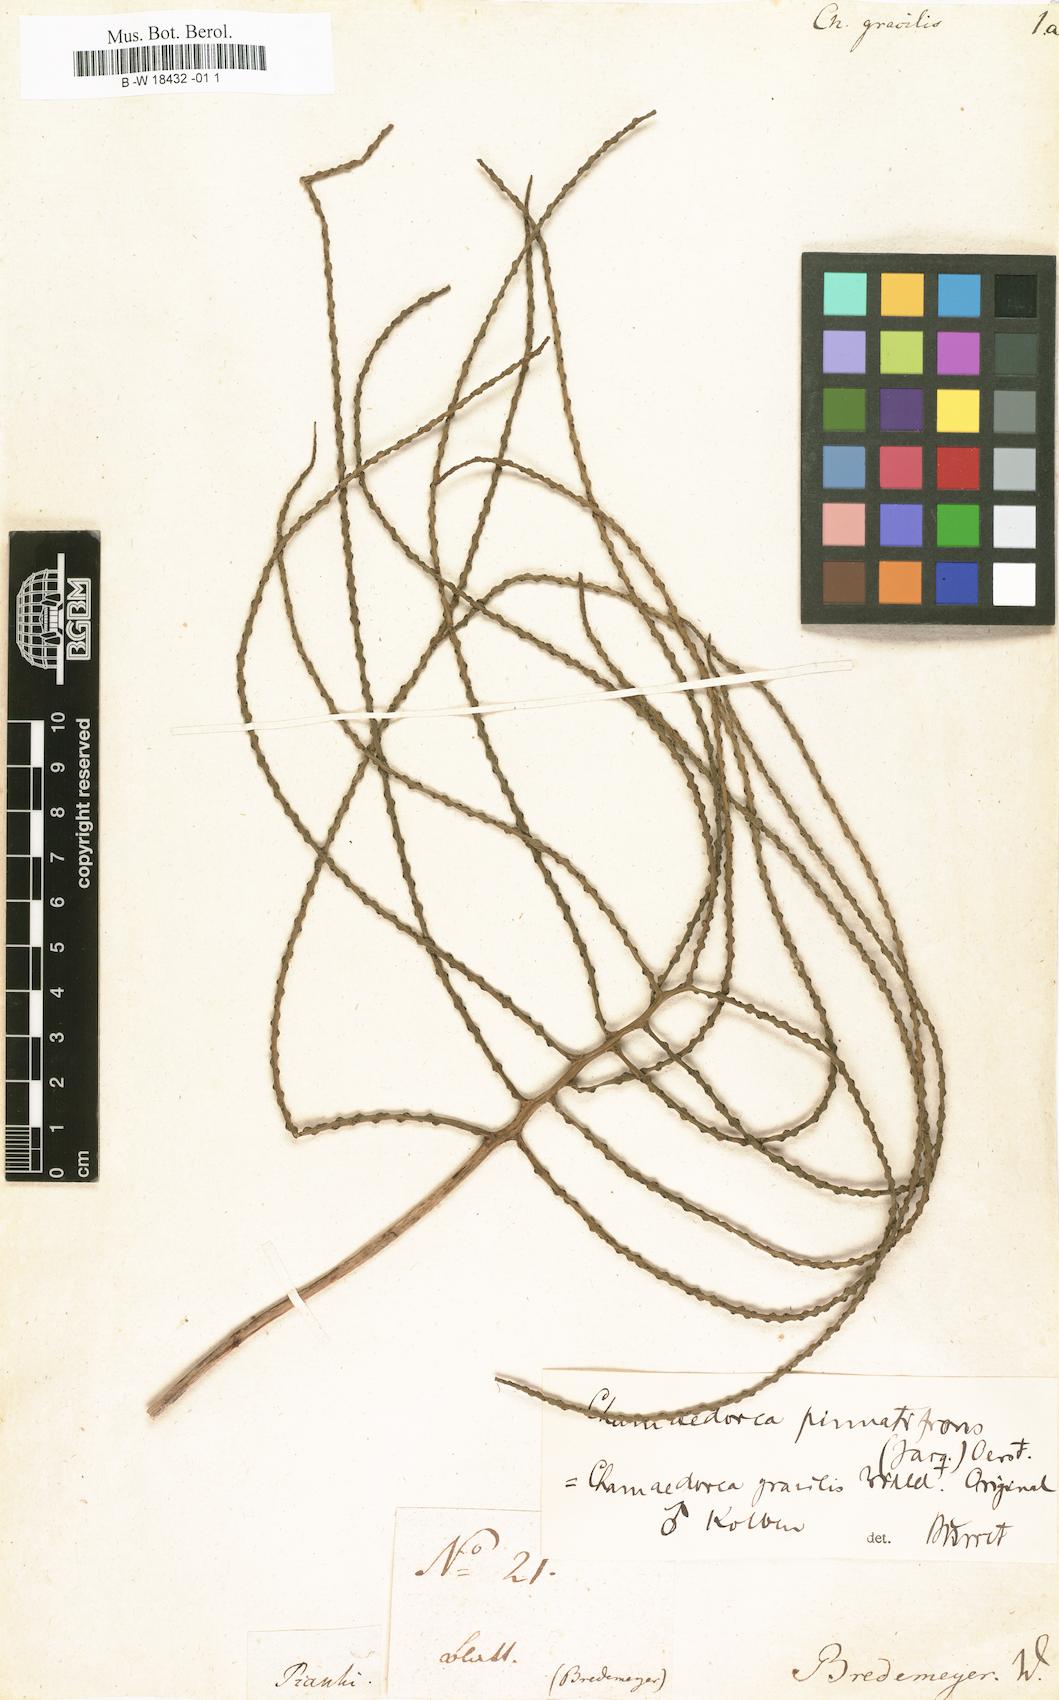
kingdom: Plantae
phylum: Tracheophyta
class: Liliopsida
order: Arecales
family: Arecaceae
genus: Chamaedorea
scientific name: Chamaedorea pinnatifrons
